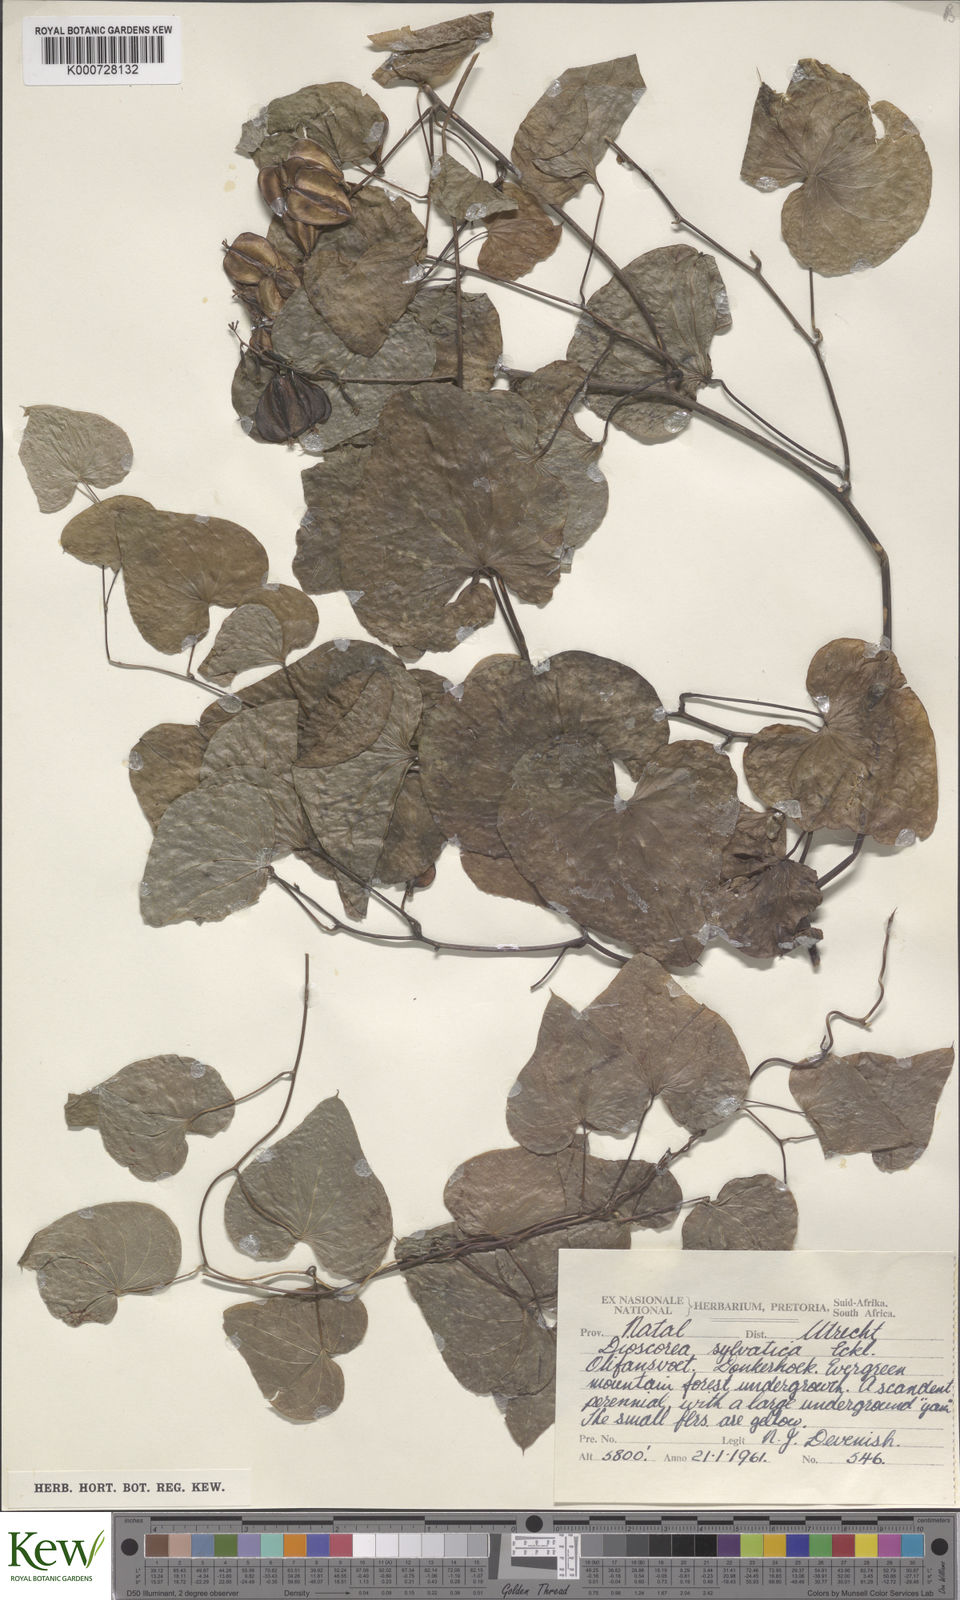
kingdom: Plantae
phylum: Tracheophyta
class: Liliopsida
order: Dioscoreales
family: Dioscoreaceae
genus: Dioscorea
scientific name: Dioscorea sylvatica
